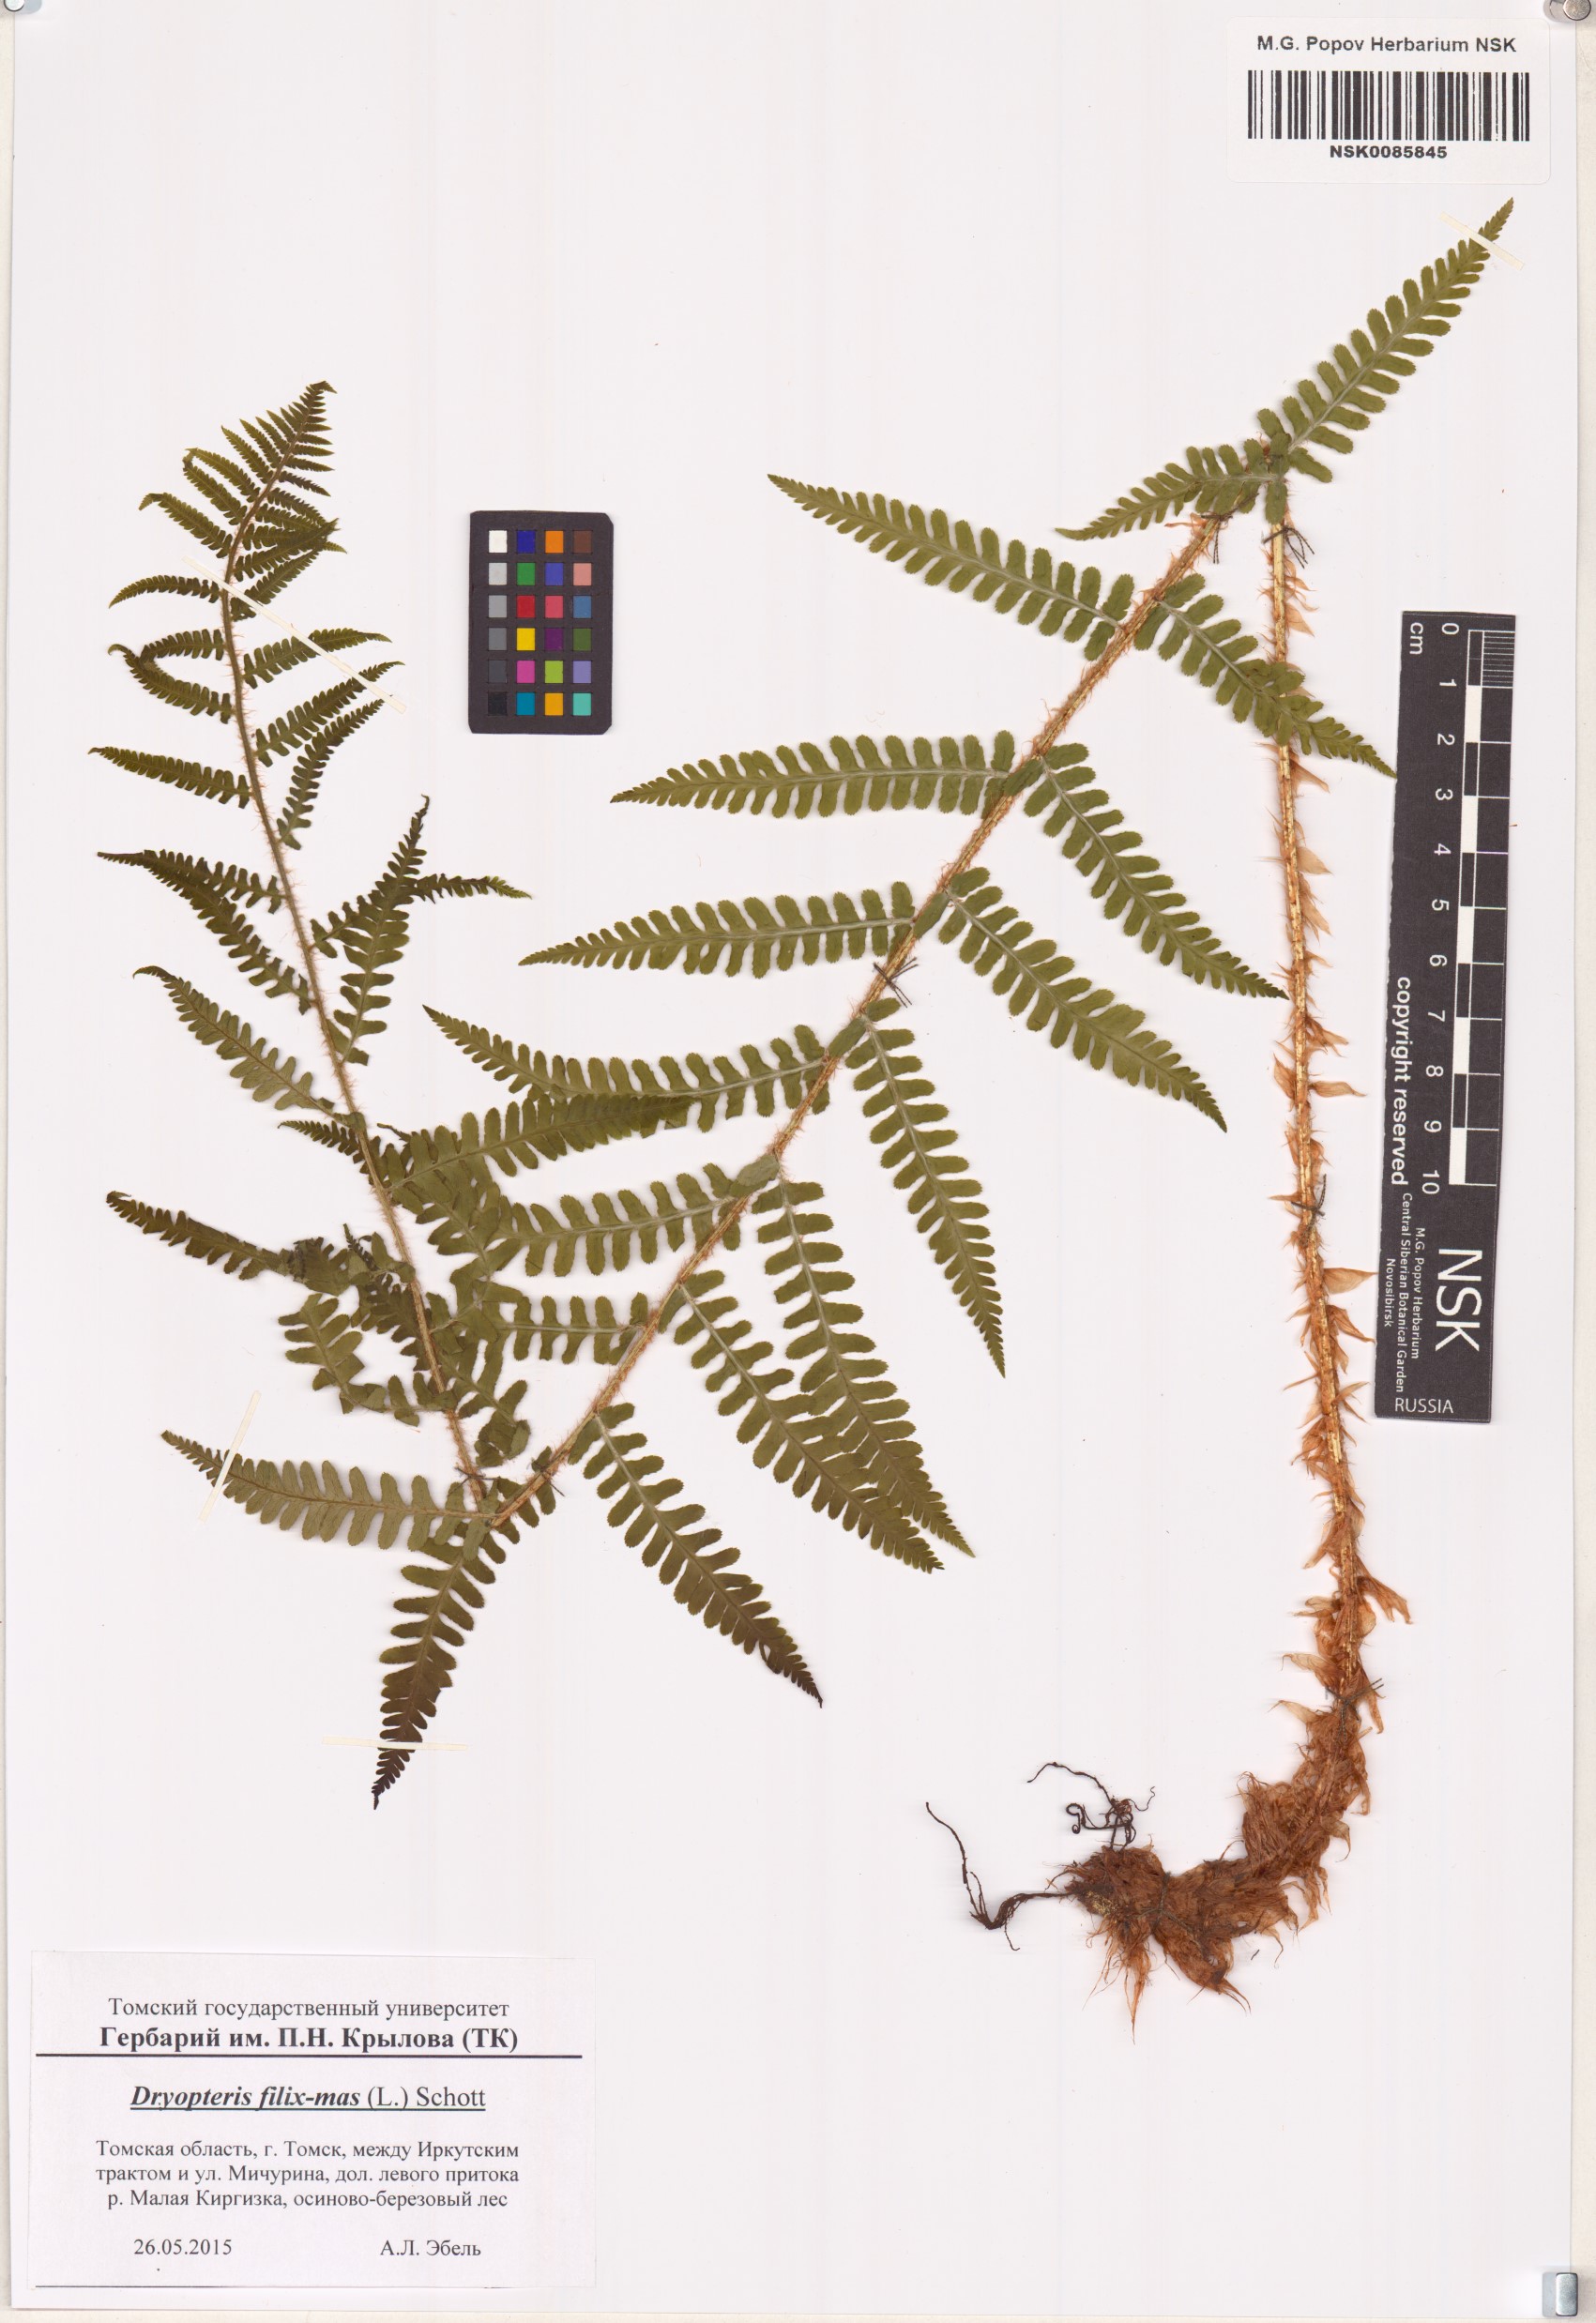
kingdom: Plantae
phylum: Tracheophyta
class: Polypodiopsida
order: Polypodiales
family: Dryopteridaceae
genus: Dryopteris
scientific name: Dryopteris filix-mas
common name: Male fern
